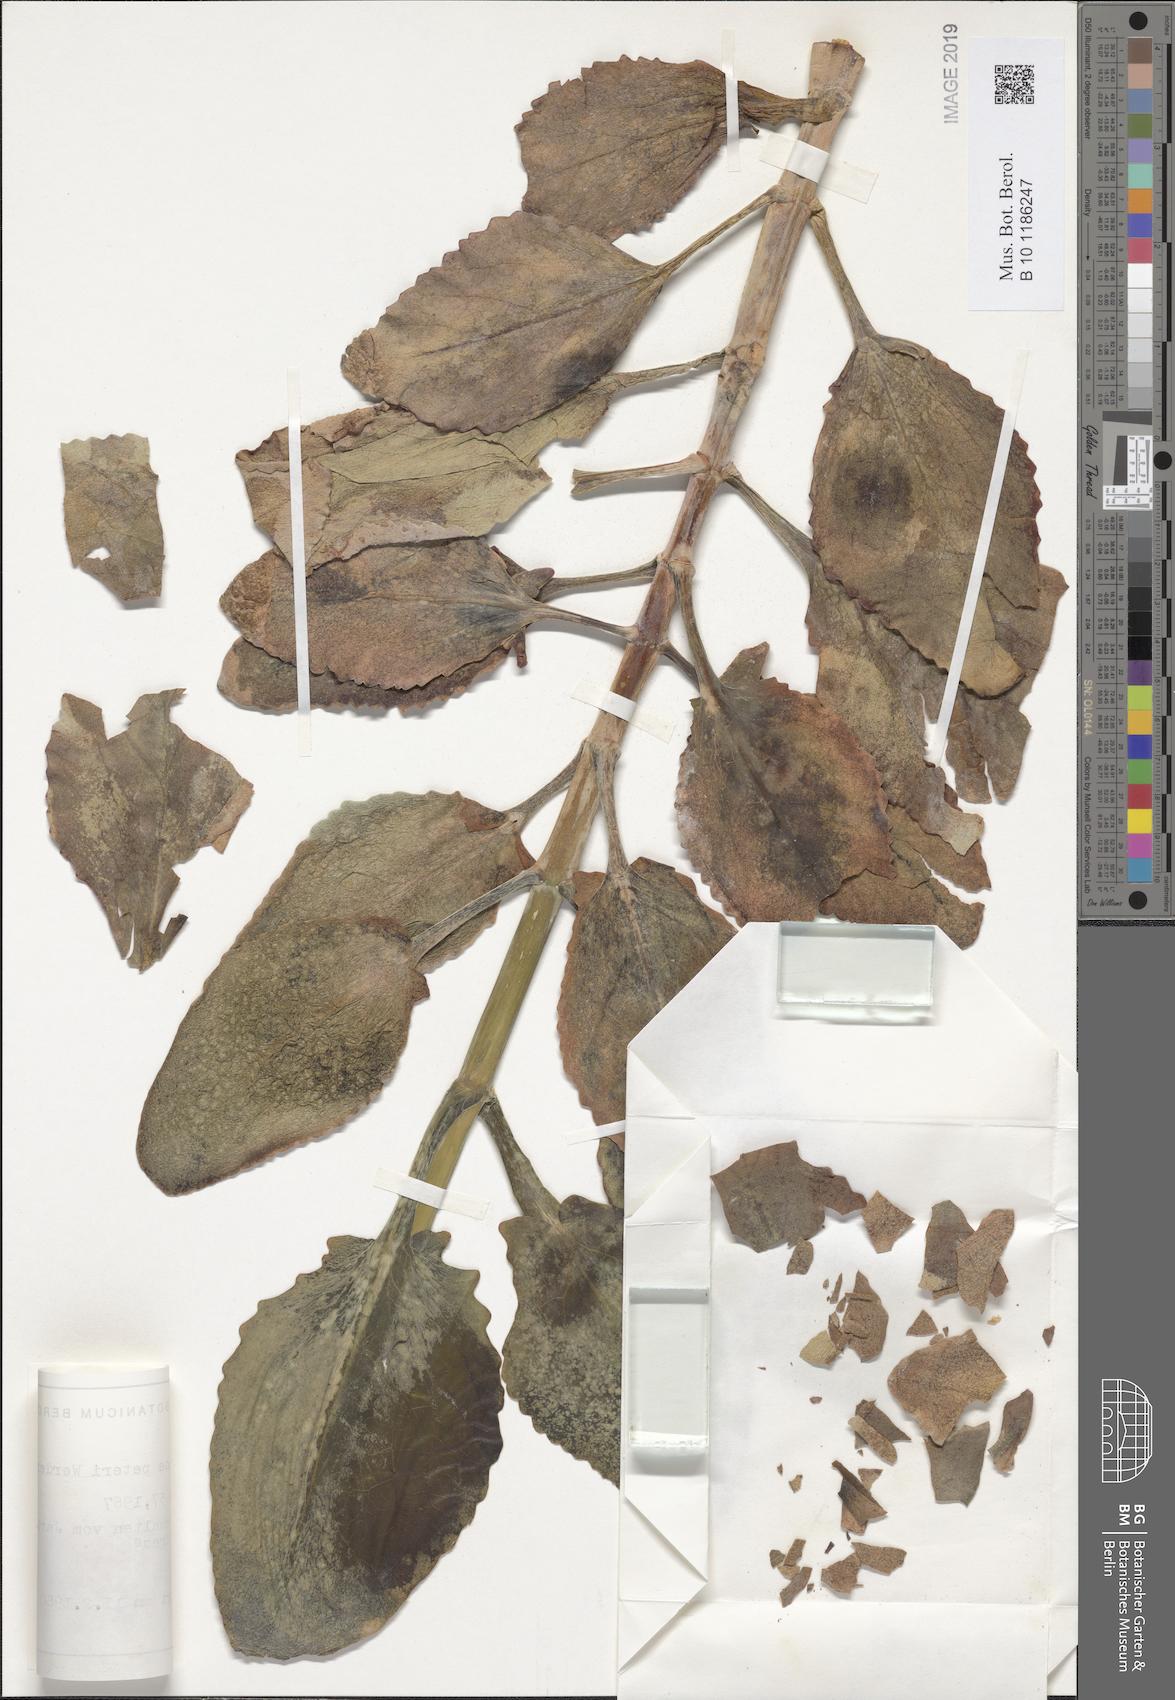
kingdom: Plantae
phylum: Tracheophyta
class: Magnoliopsida
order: Saxifragales
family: Crassulaceae
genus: Kalanchoe
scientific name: Kalanchoe peteri
